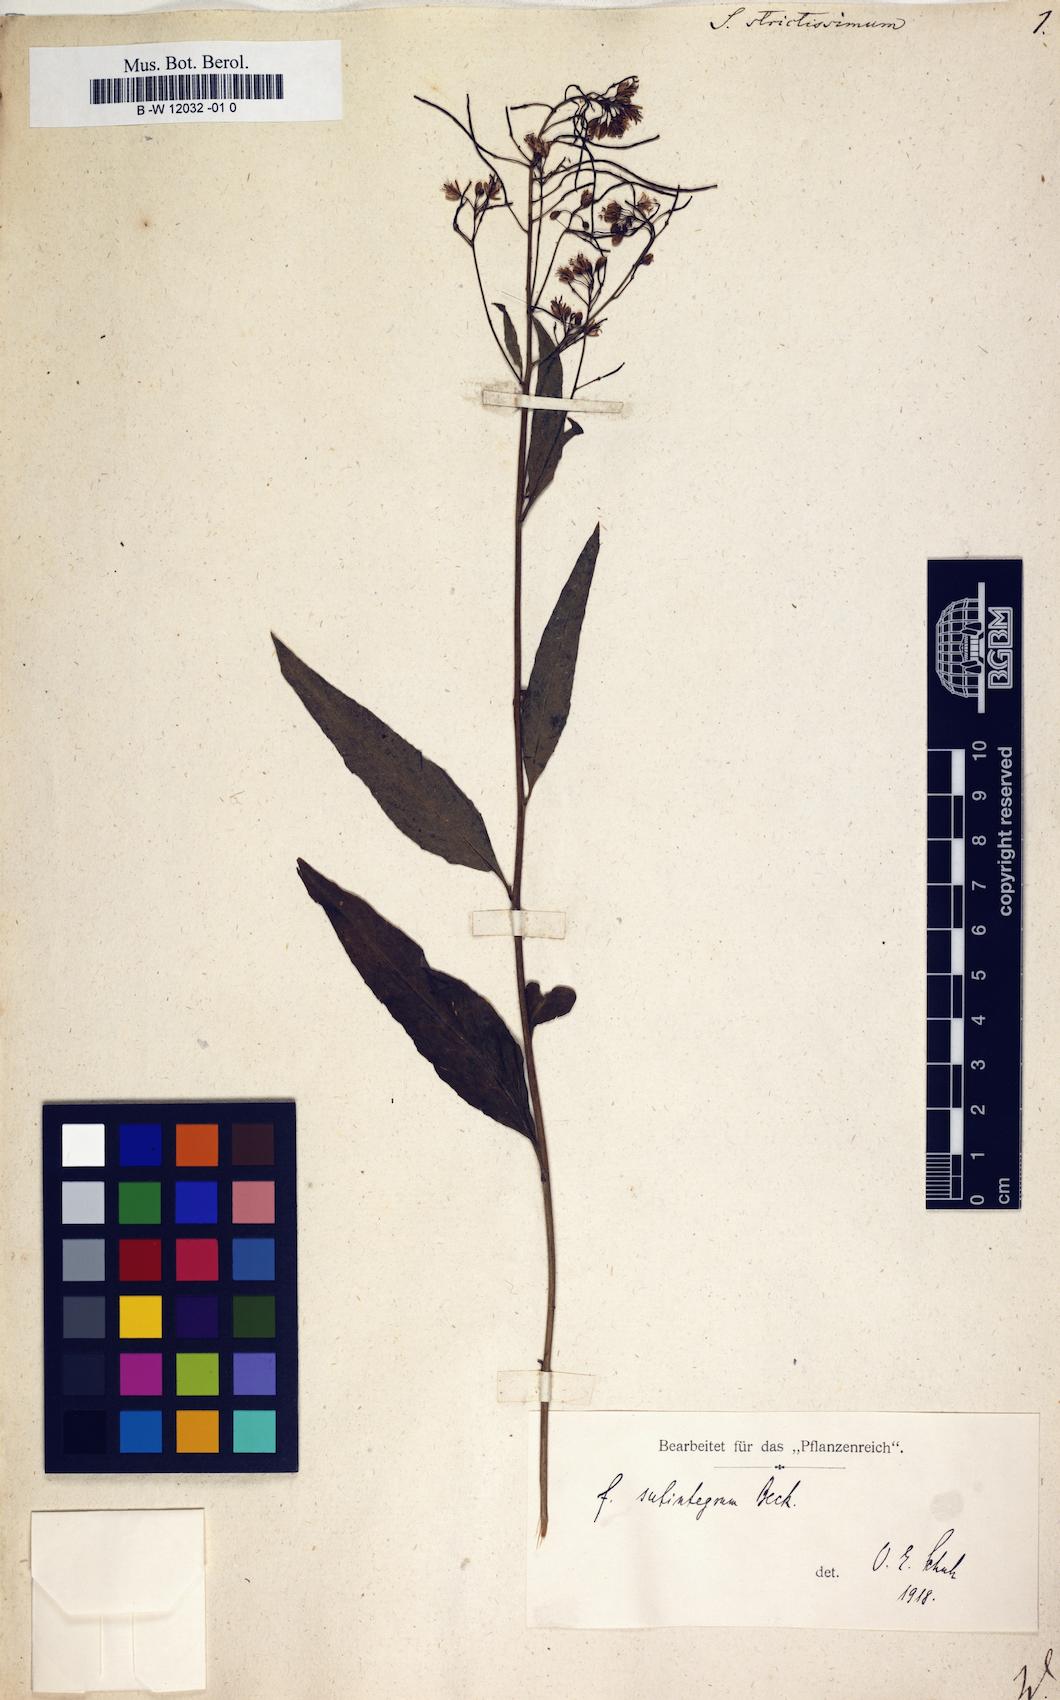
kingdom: Plantae
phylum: Tracheophyta
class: Magnoliopsida
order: Brassicales
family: Brassicaceae
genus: Sisymbrium
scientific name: Sisymbrium strictissimum
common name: Perennial rocket
